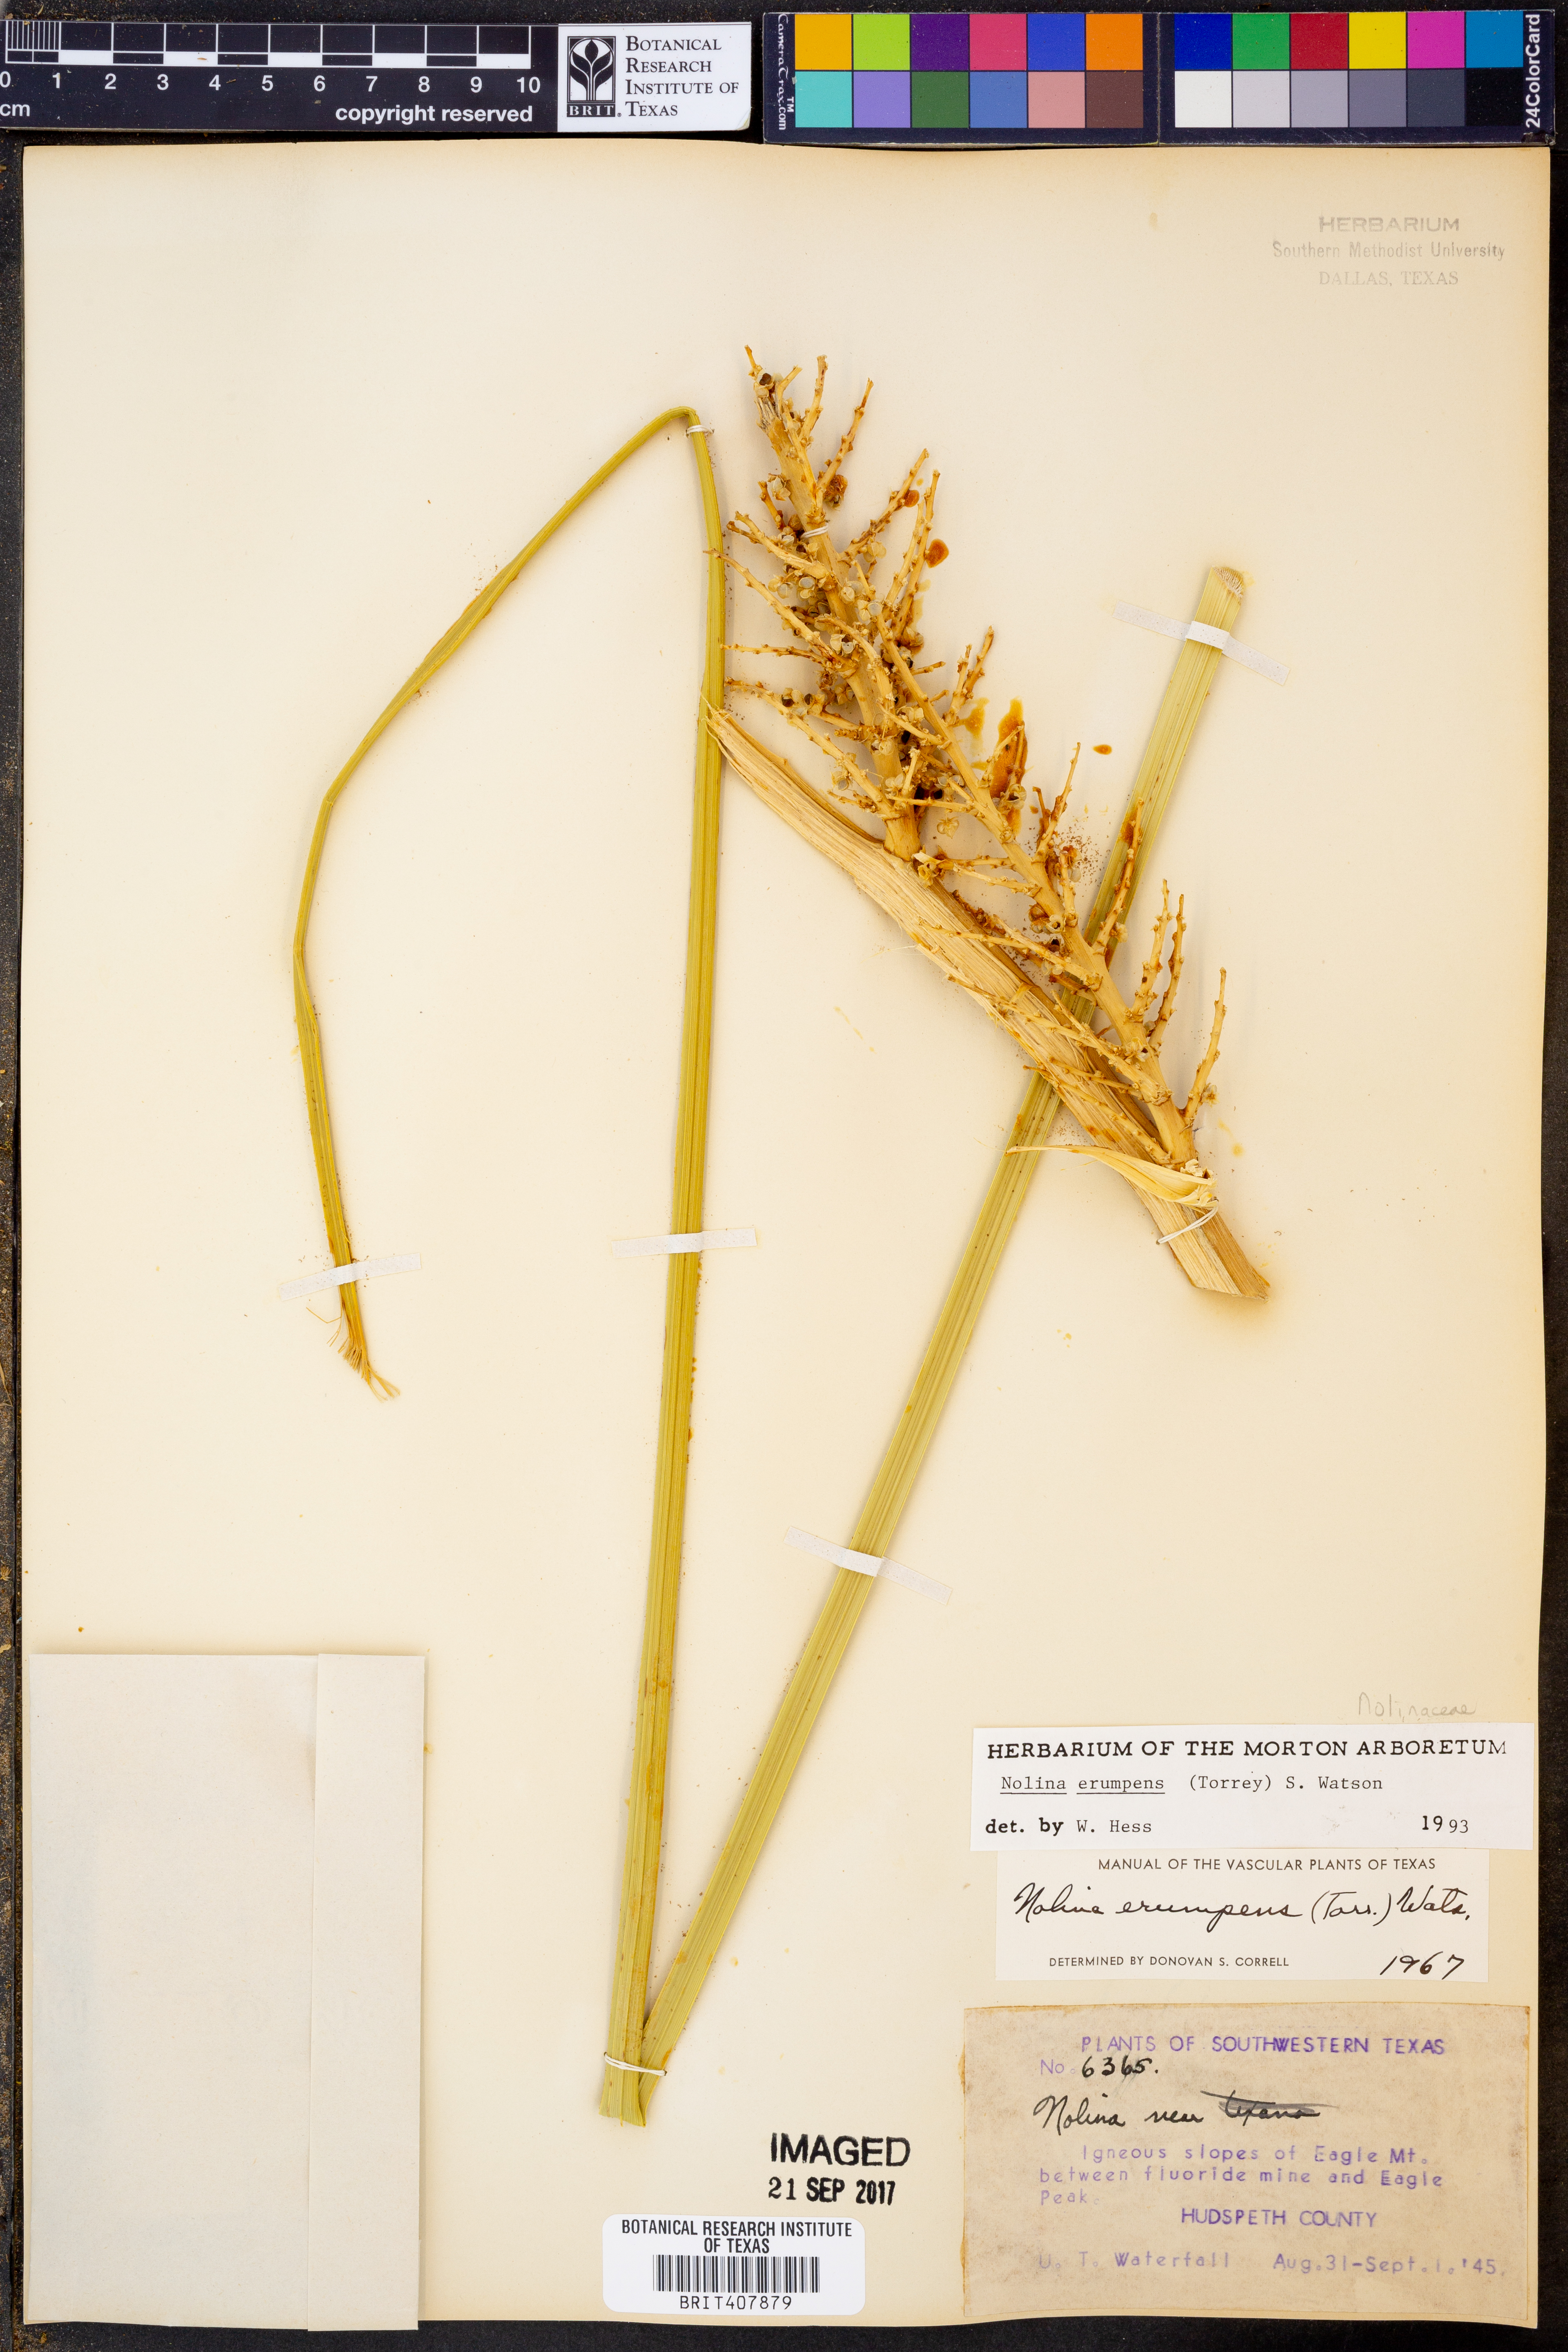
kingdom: Plantae
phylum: Tracheophyta
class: Liliopsida
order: Asparagales
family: Asparagaceae
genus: Nolina
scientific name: Nolina erumpens
